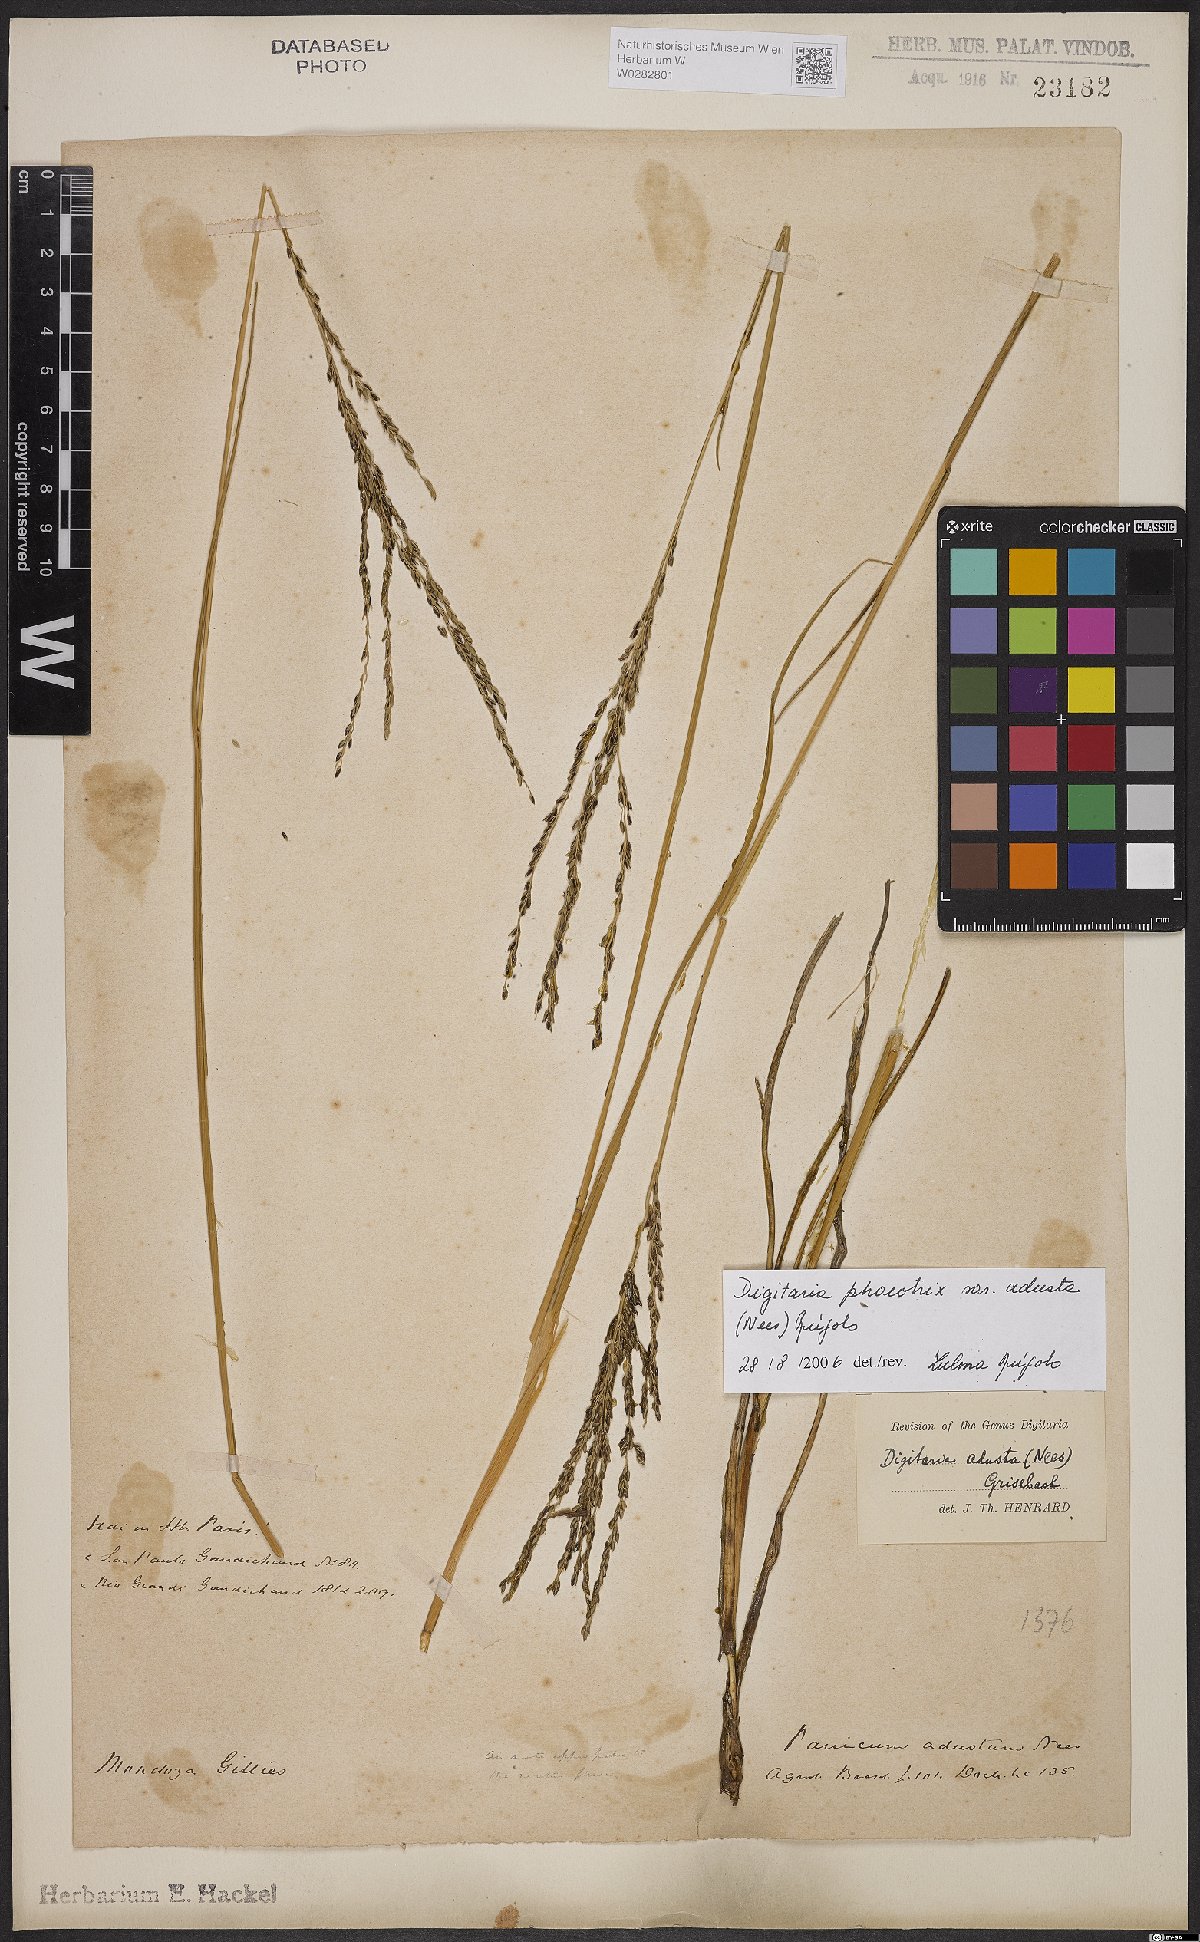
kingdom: Plantae
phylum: Tracheophyta
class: Liliopsida
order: Poales
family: Poaceae
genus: Digitaria
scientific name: Digitaria phaeothrix
